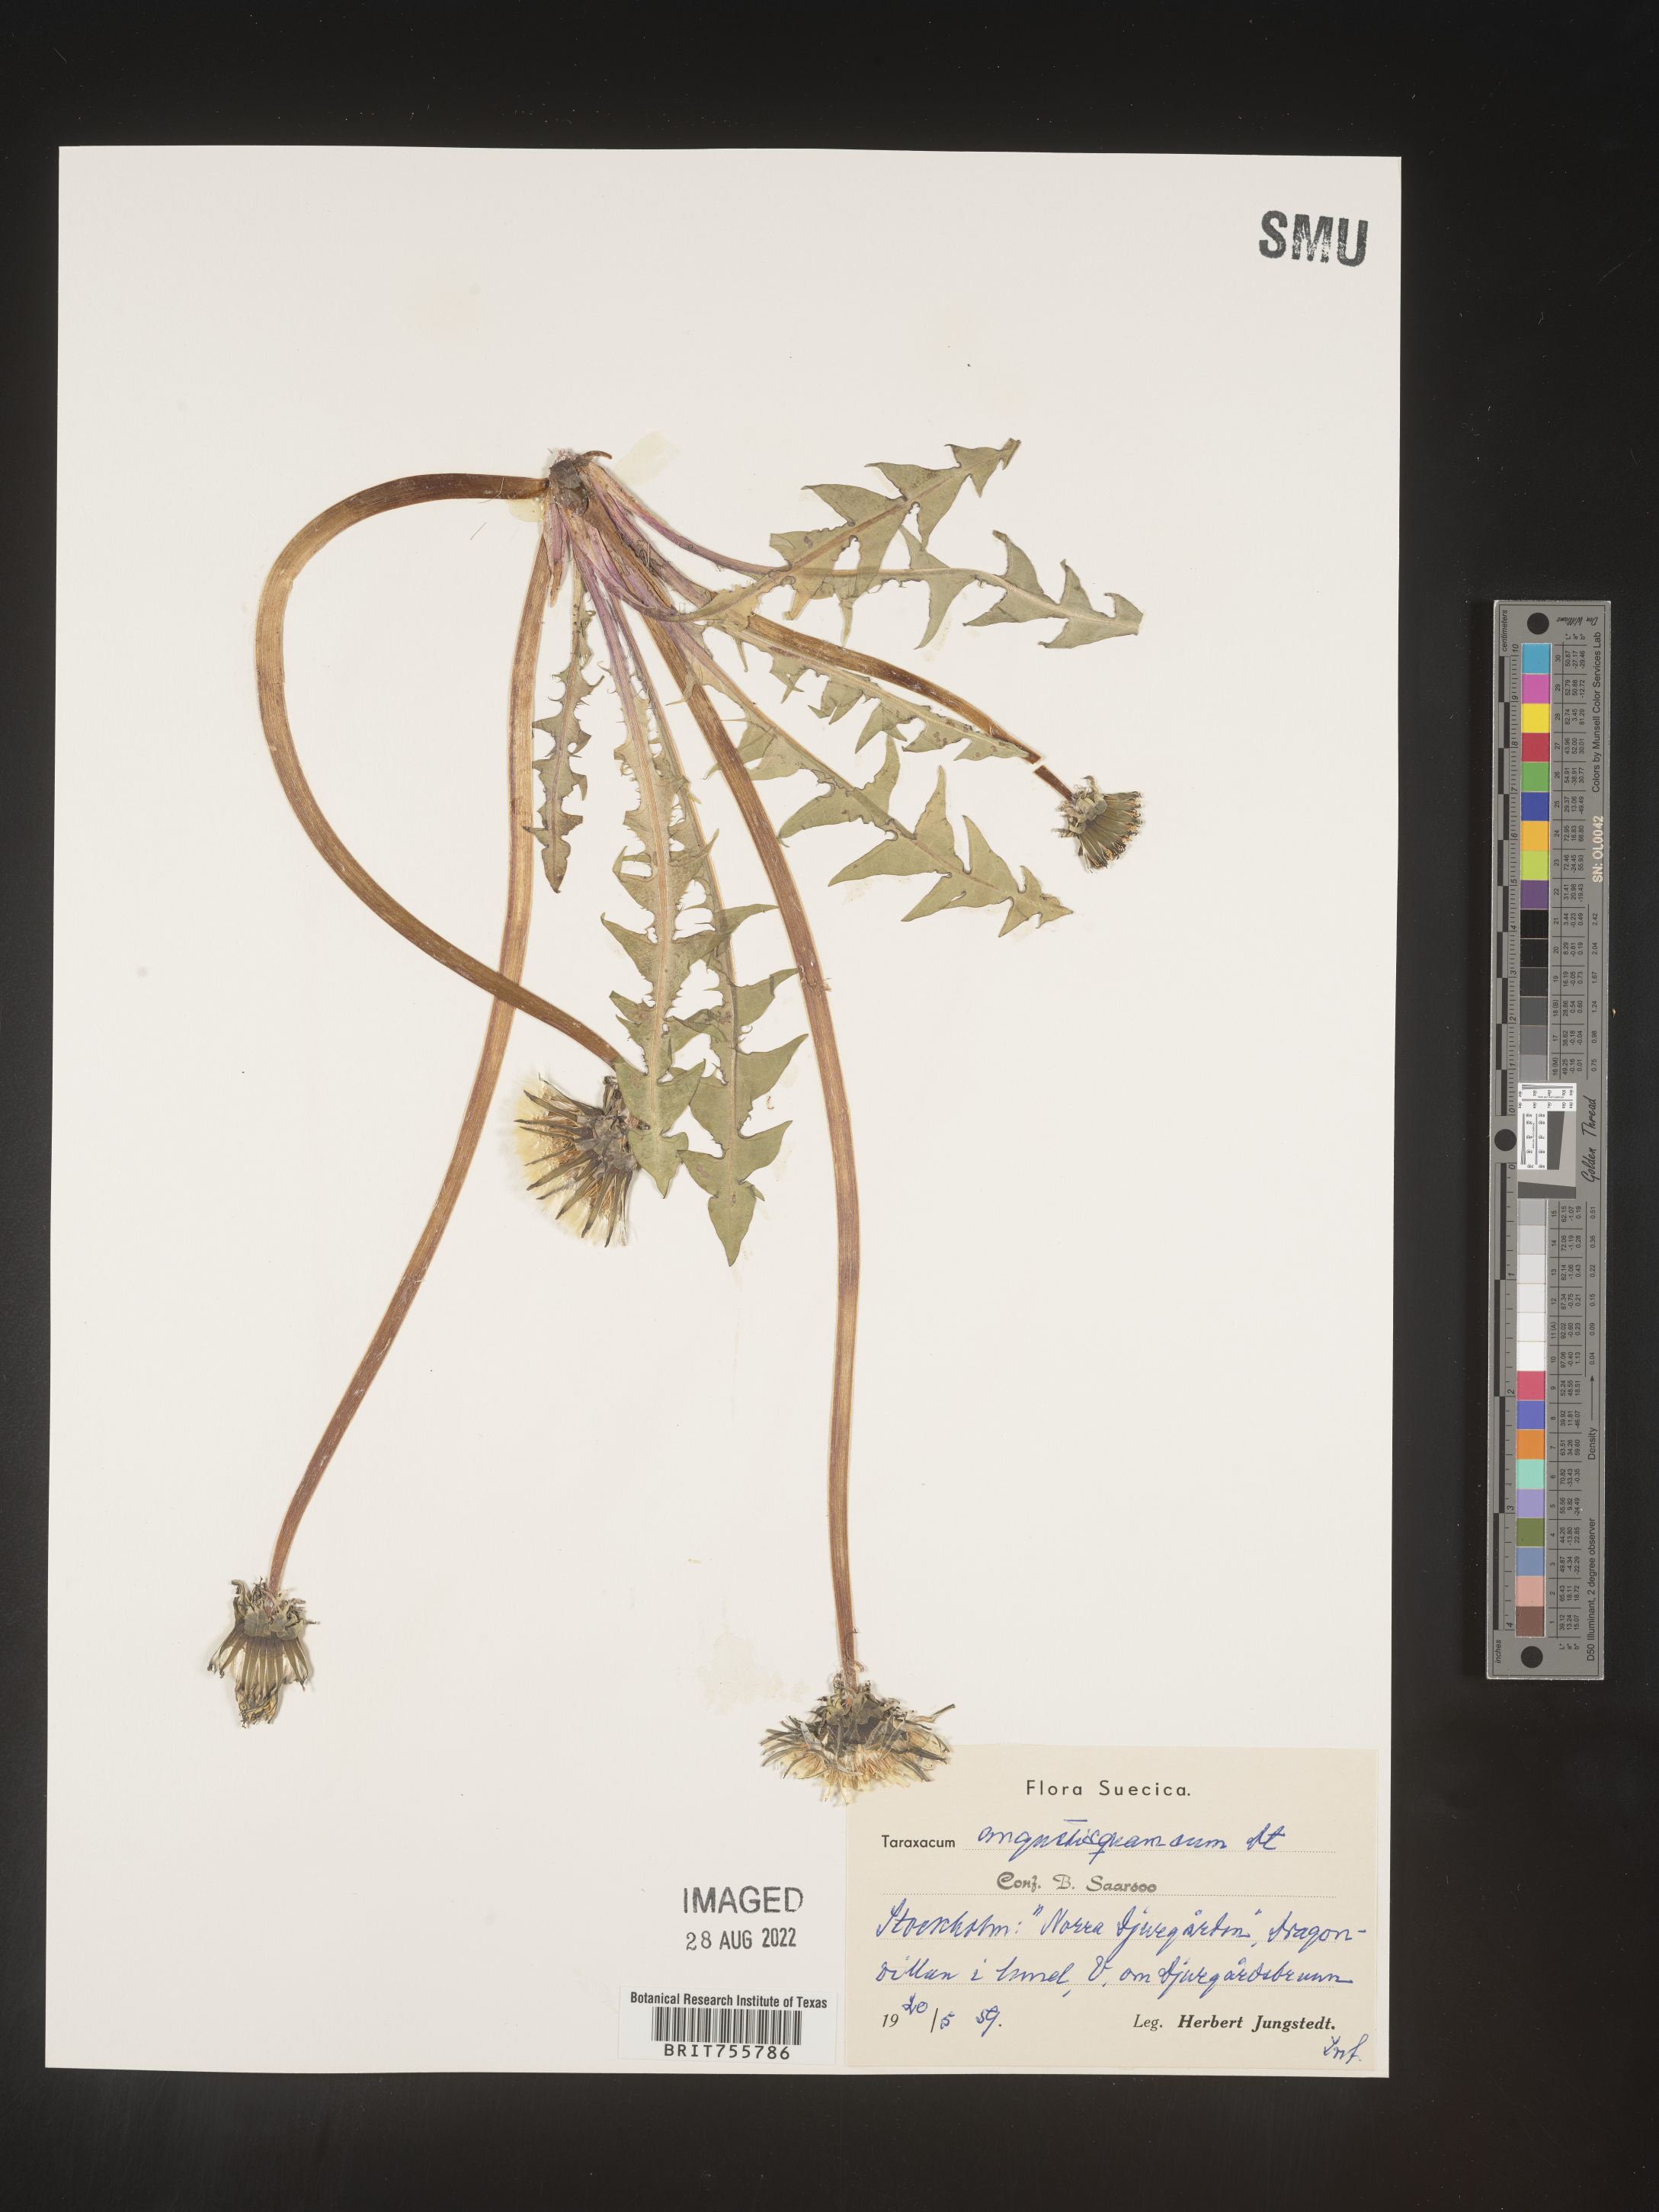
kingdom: Plantae
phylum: Tracheophyta
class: Magnoliopsida
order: Asterales
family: Asteraceae
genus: Taraxacum
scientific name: Taraxacum
